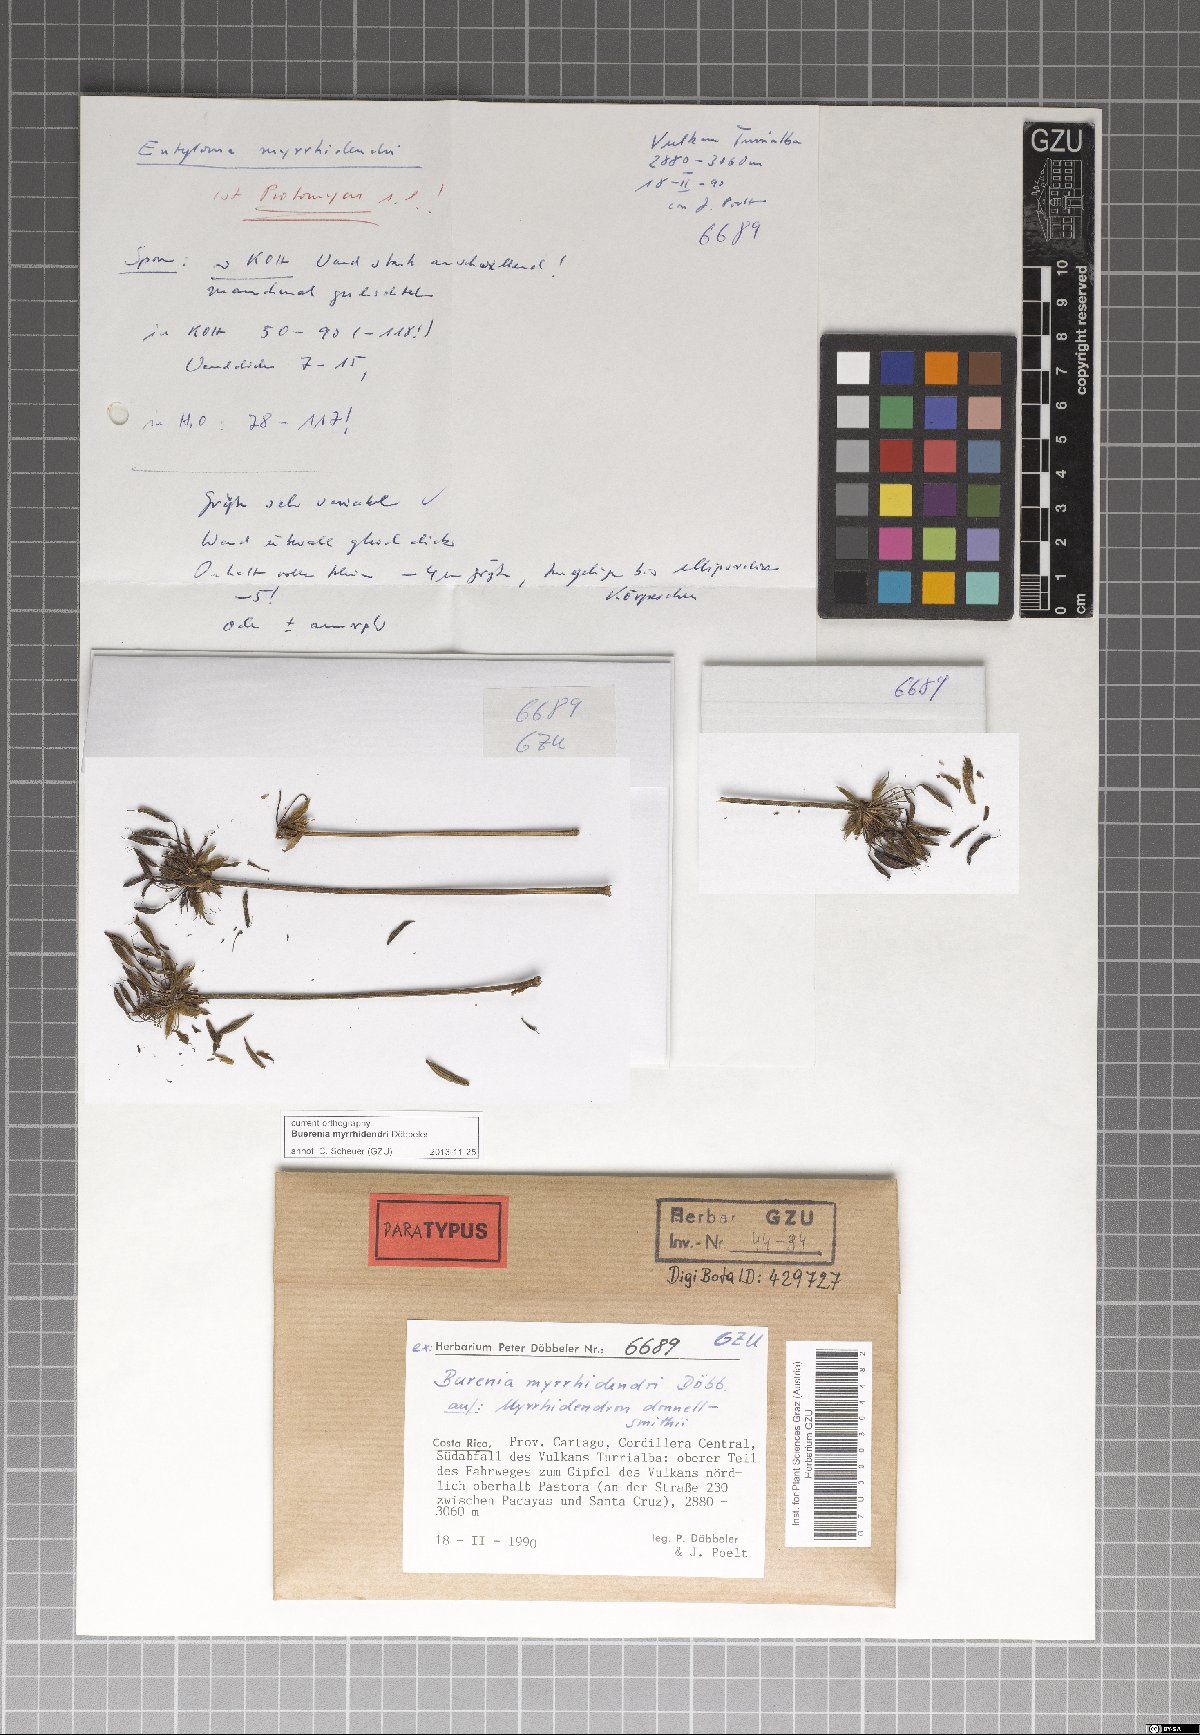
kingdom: Fungi
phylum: Ascomycota
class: Taphrinomycetes
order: Taphrinales
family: Protomycetaceae
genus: Buerenia
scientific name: Buerenia myrrhidendri
